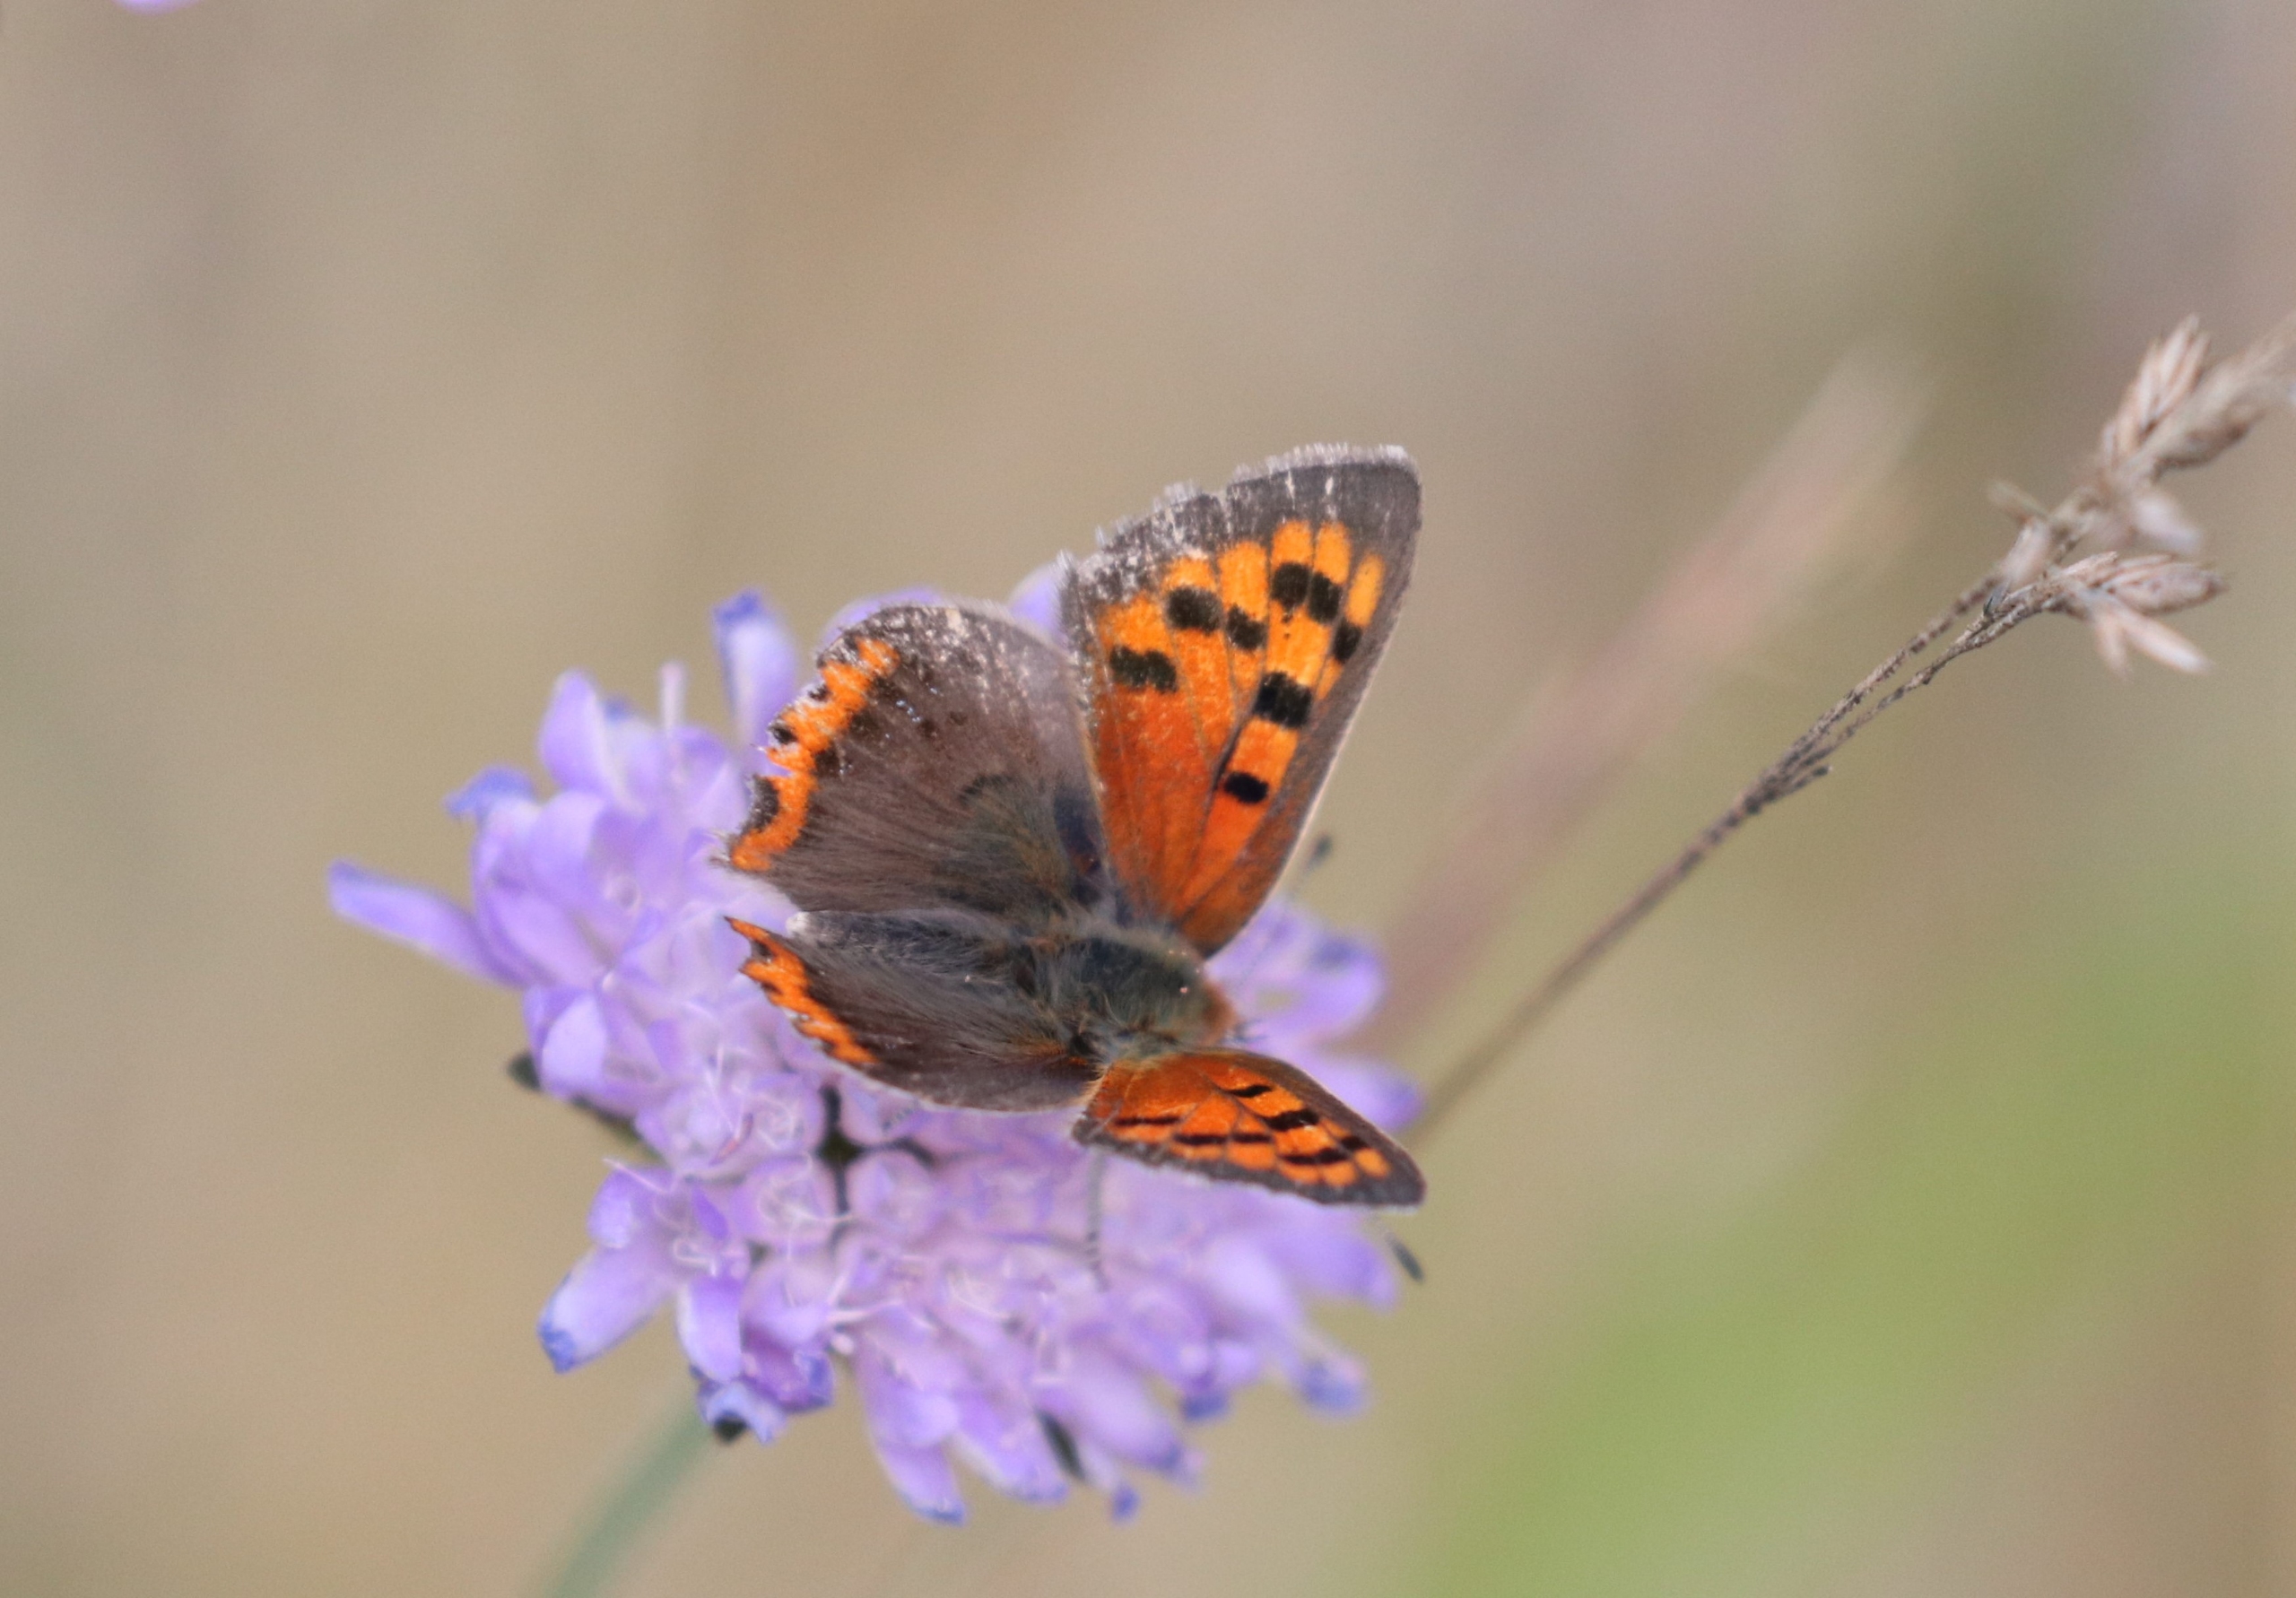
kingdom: Animalia
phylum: Arthropoda
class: Insecta
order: Lepidoptera
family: Lycaenidae
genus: Lycaena
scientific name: Lycaena phlaeas
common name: Lille ildfugl
